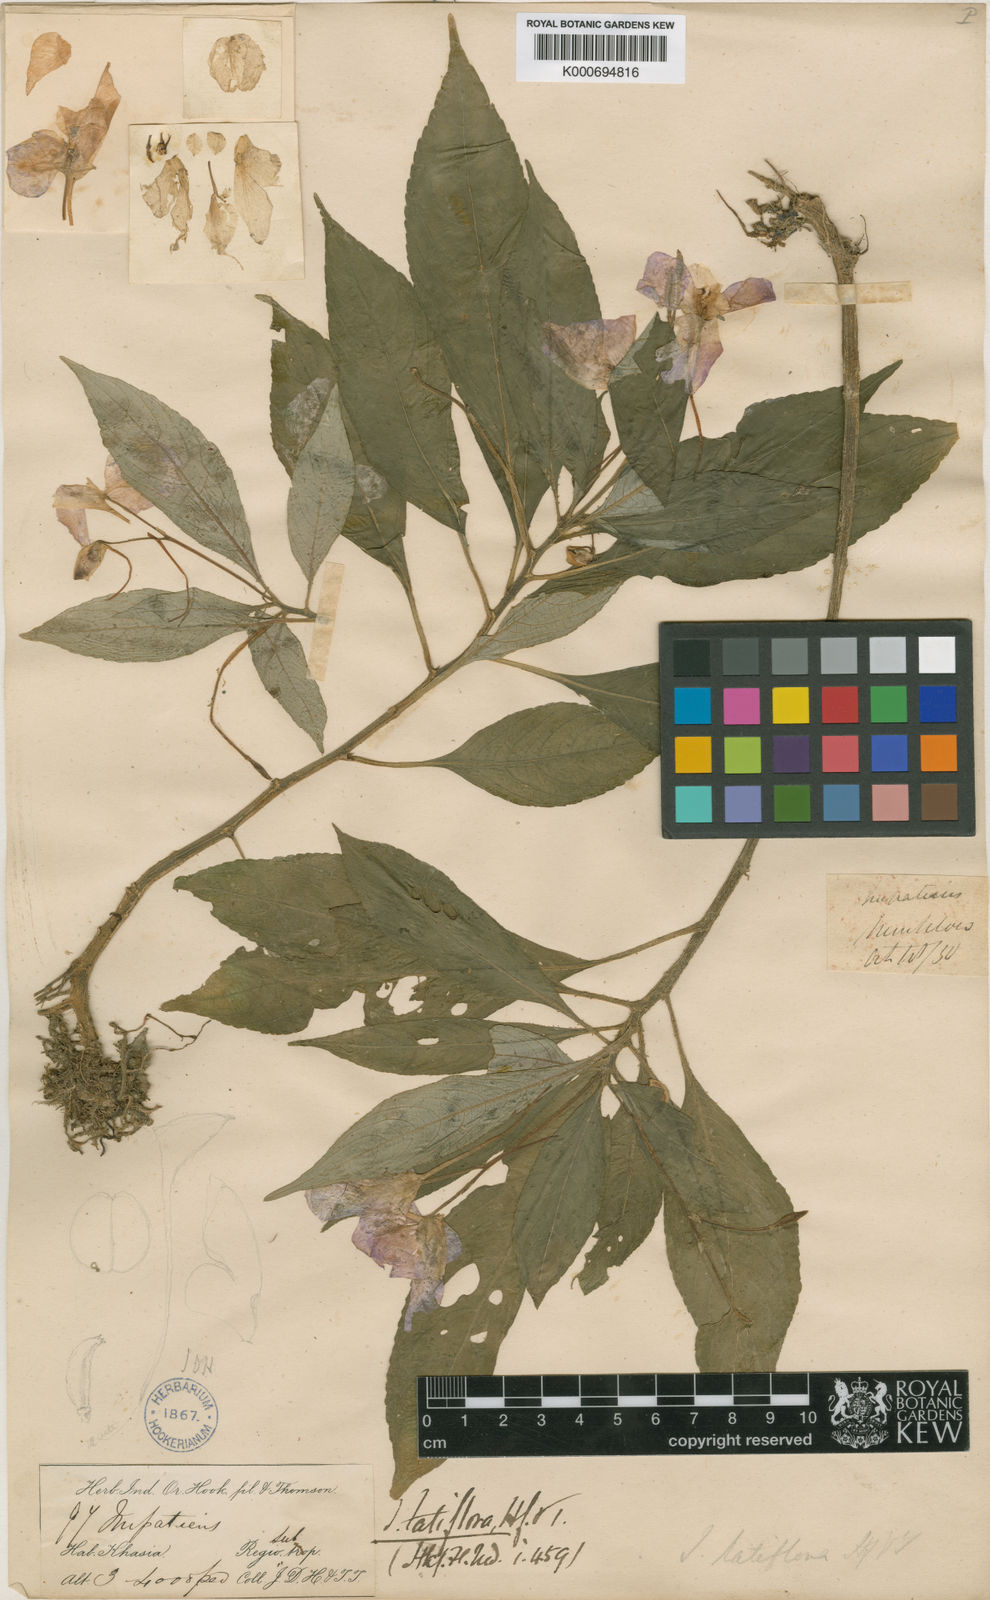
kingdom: Plantae
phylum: Tracheophyta
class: Magnoliopsida
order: Ericales
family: Balsaminaceae
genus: Impatiens
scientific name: Impatiens latiflora
